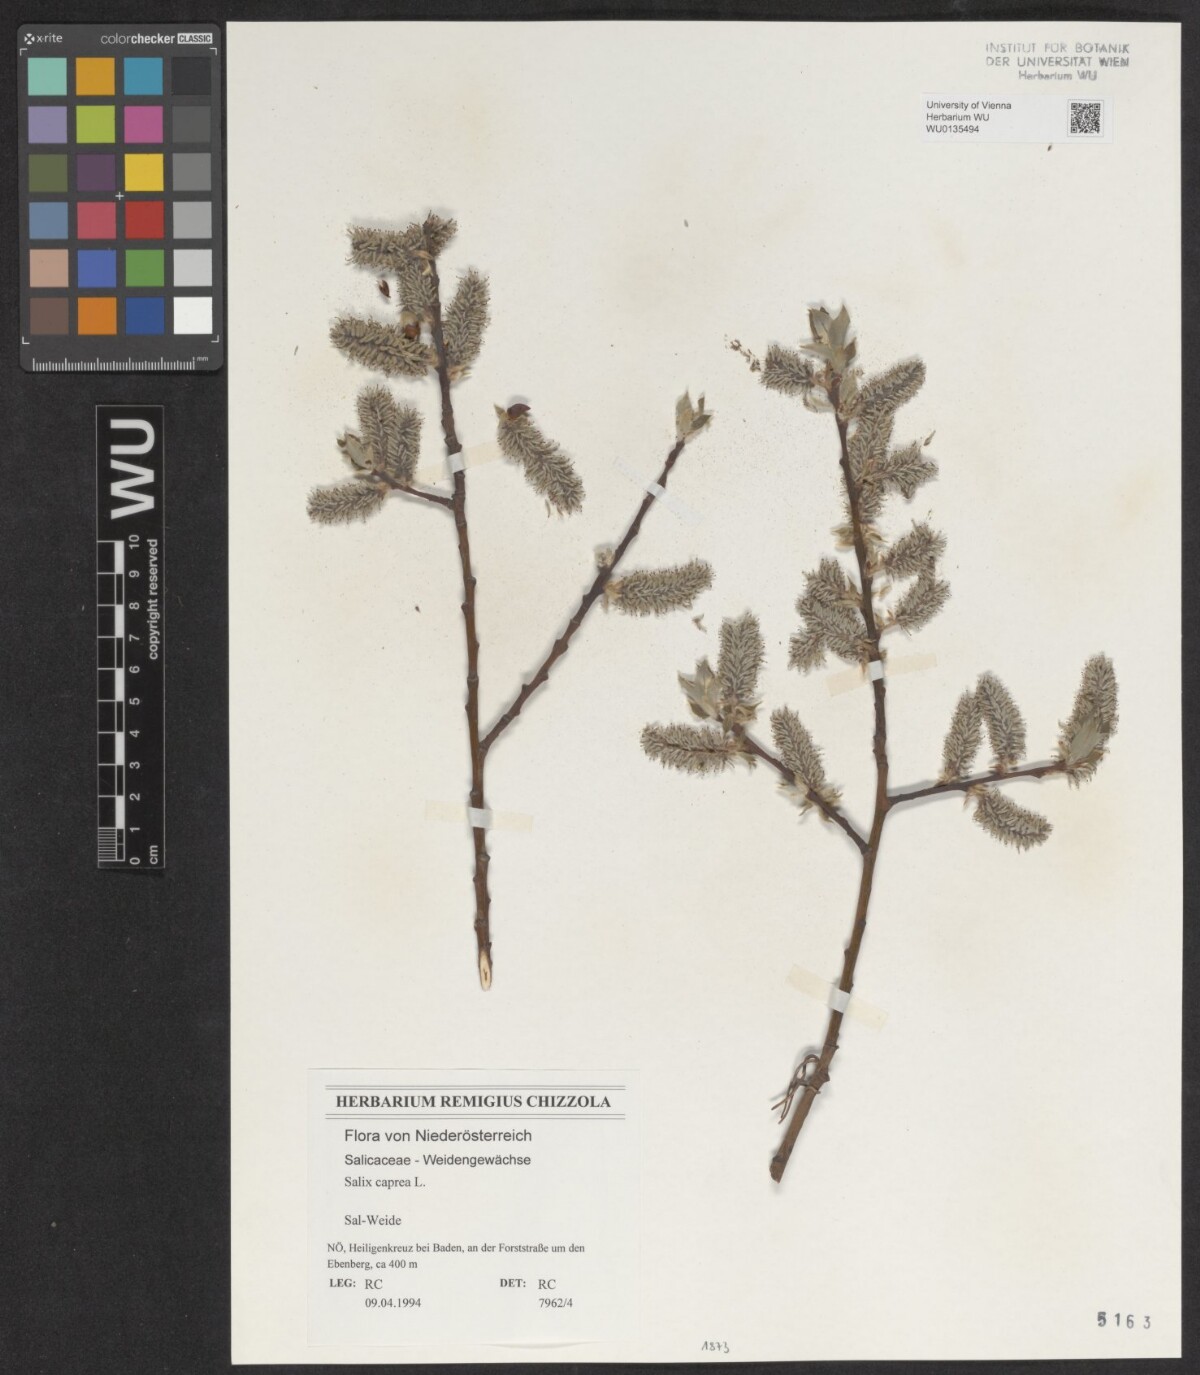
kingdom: Plantae
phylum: Tracheophyta
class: Magnoliopsida
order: Malpighiales
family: Salicaceae
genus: Salix
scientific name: Salix caprea
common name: Goat willow
